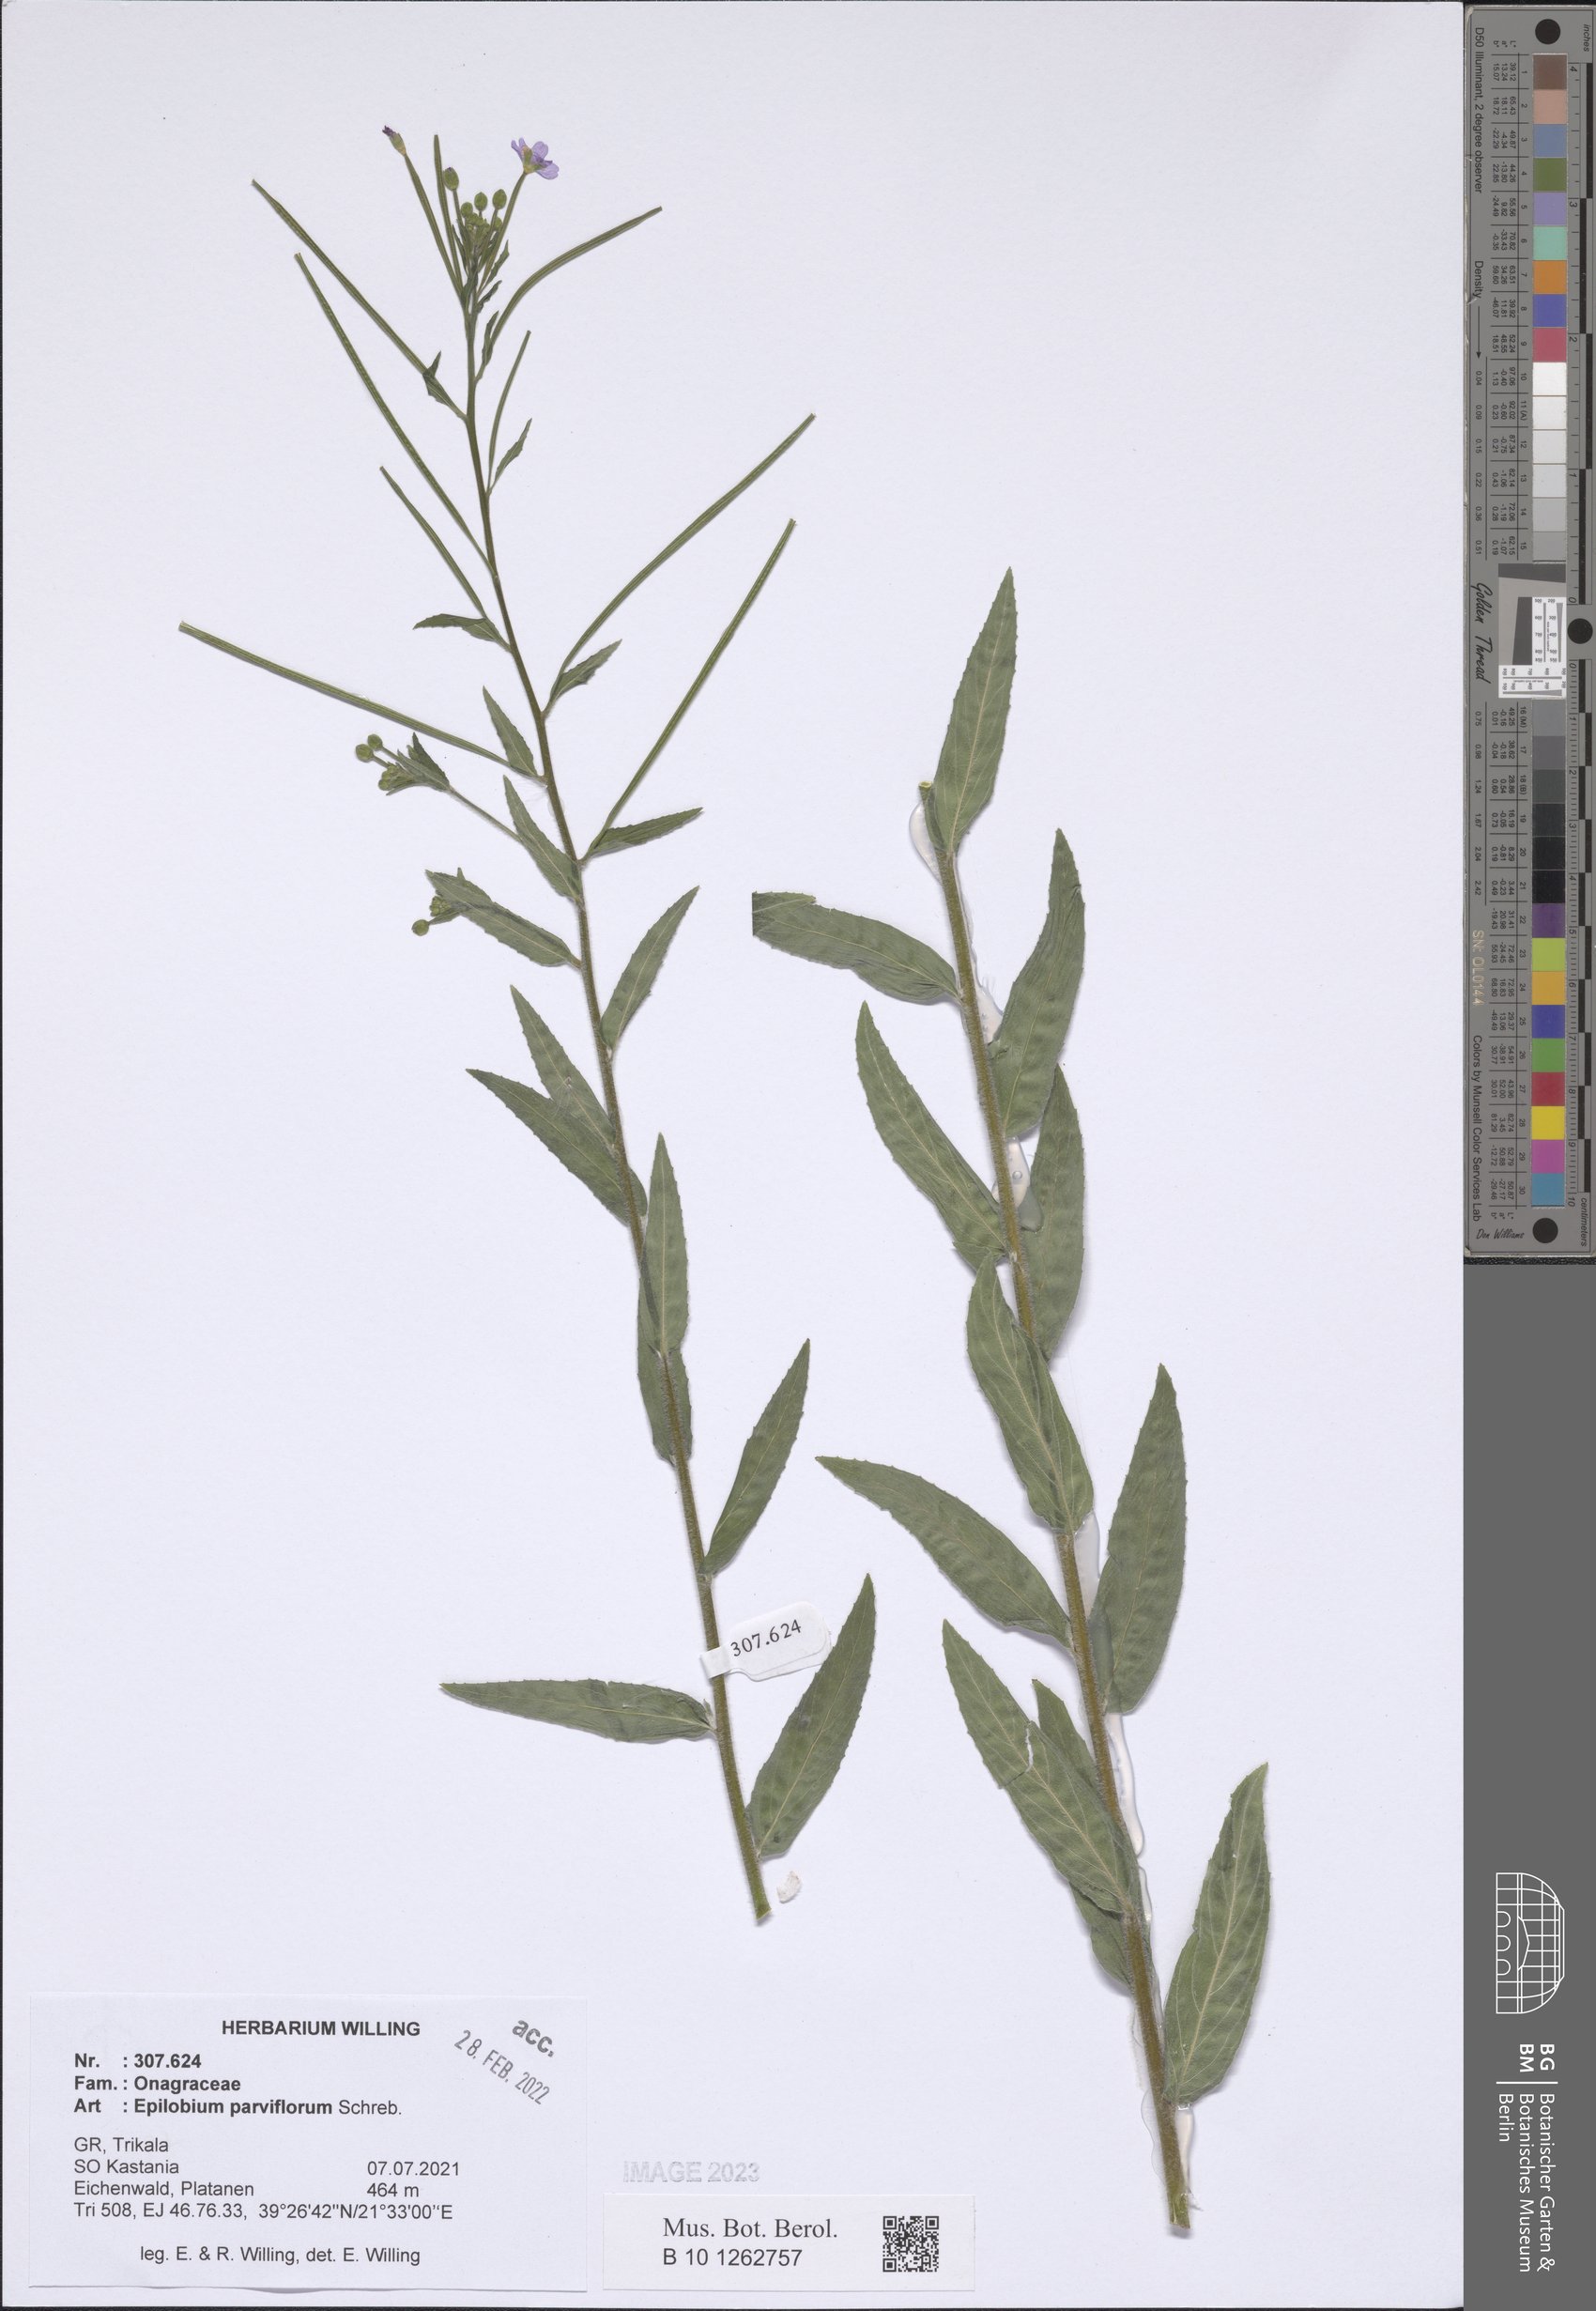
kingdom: Plantae
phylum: Tracheophyta
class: Magnoliopsida
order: Myrtales
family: Onagraceae
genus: Epilobium
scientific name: Epilobium parviflorum
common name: Hoary willowherb
